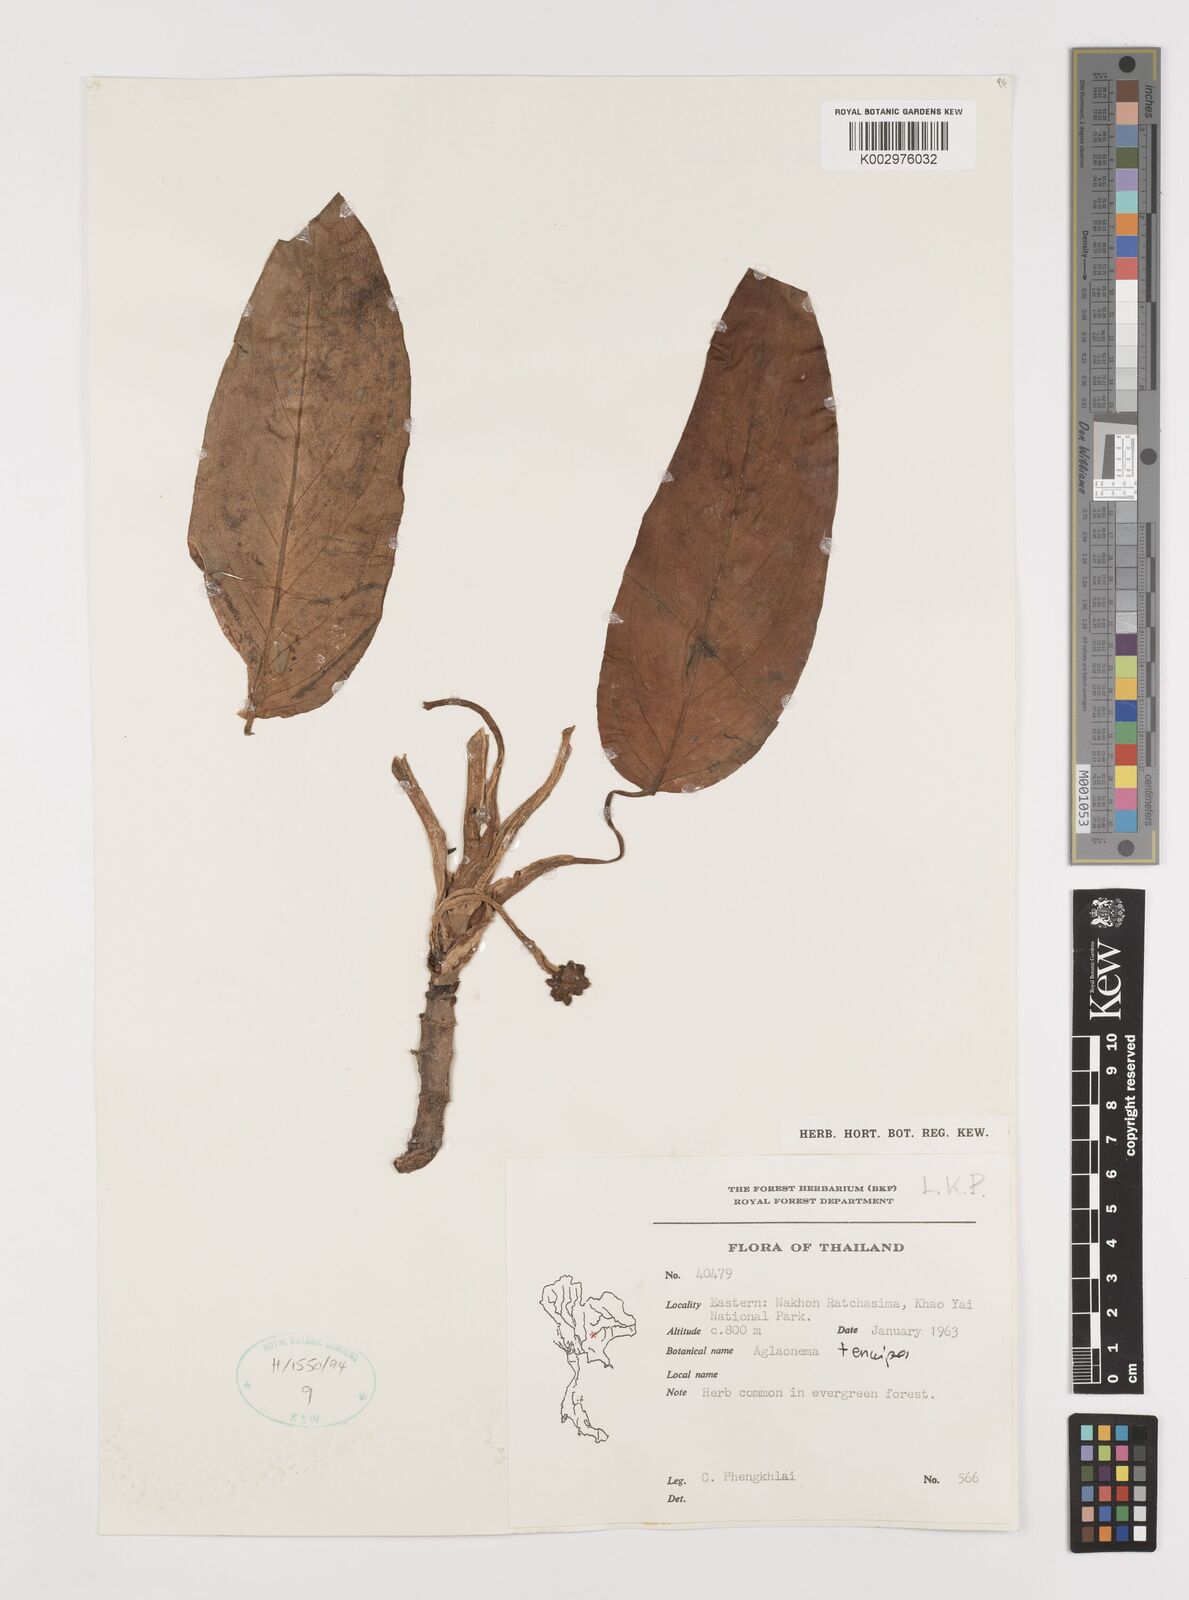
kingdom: Plantae
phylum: Tracheophyta
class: Liliopsida
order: Alismatales
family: Araceae
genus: Aglaonema
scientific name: Aglaonema simplex
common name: Malayan-sword
